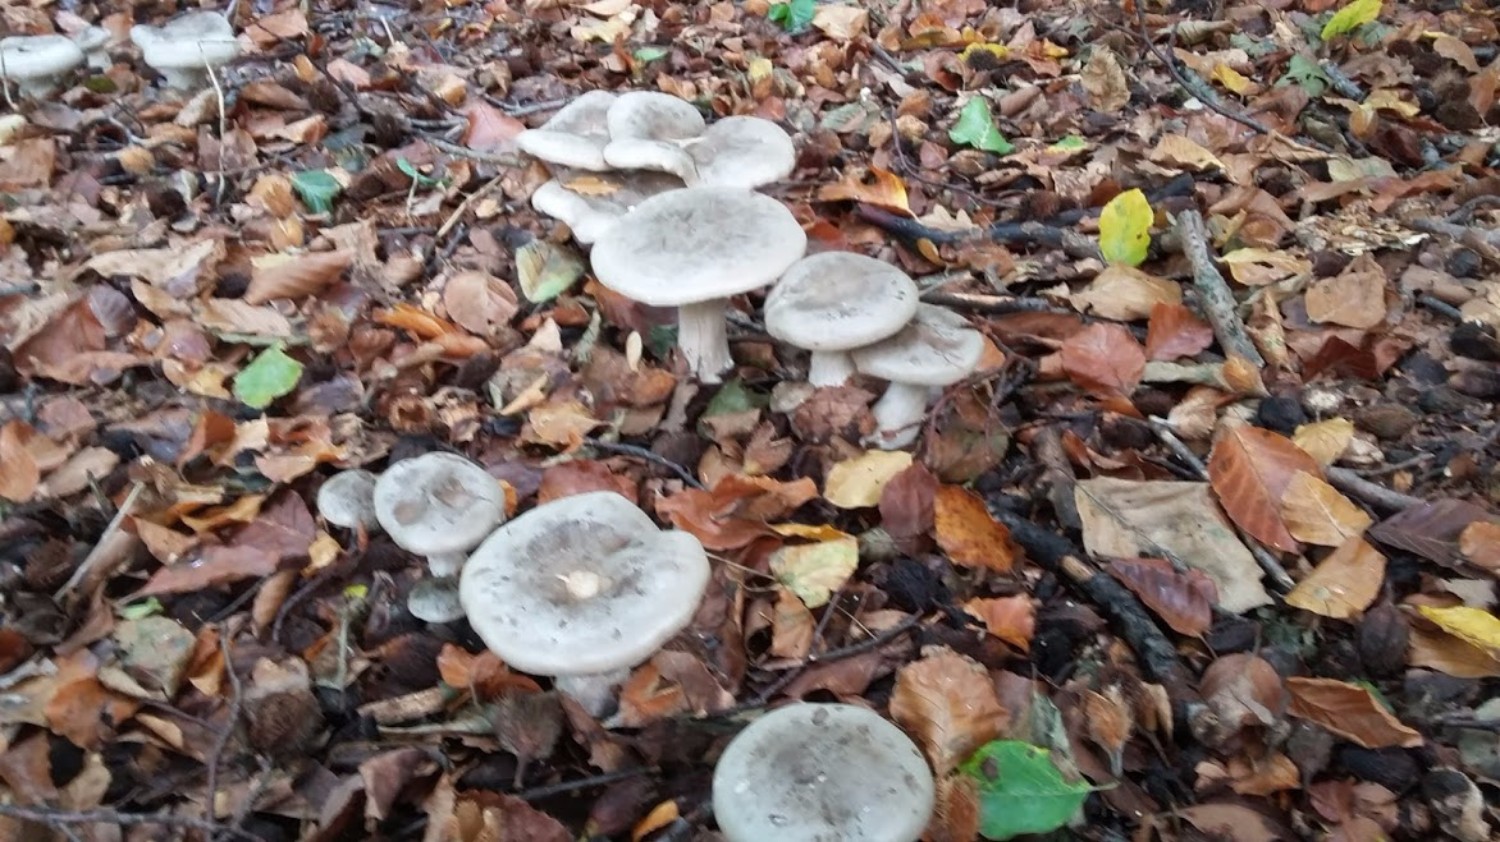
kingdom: Fungi
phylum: Basidiomycota
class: Agaricomycetes
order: Agaricales
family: Tricholomataceae
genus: Clitocybe
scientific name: Clitocybe nebularis
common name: tåge-tragthat
